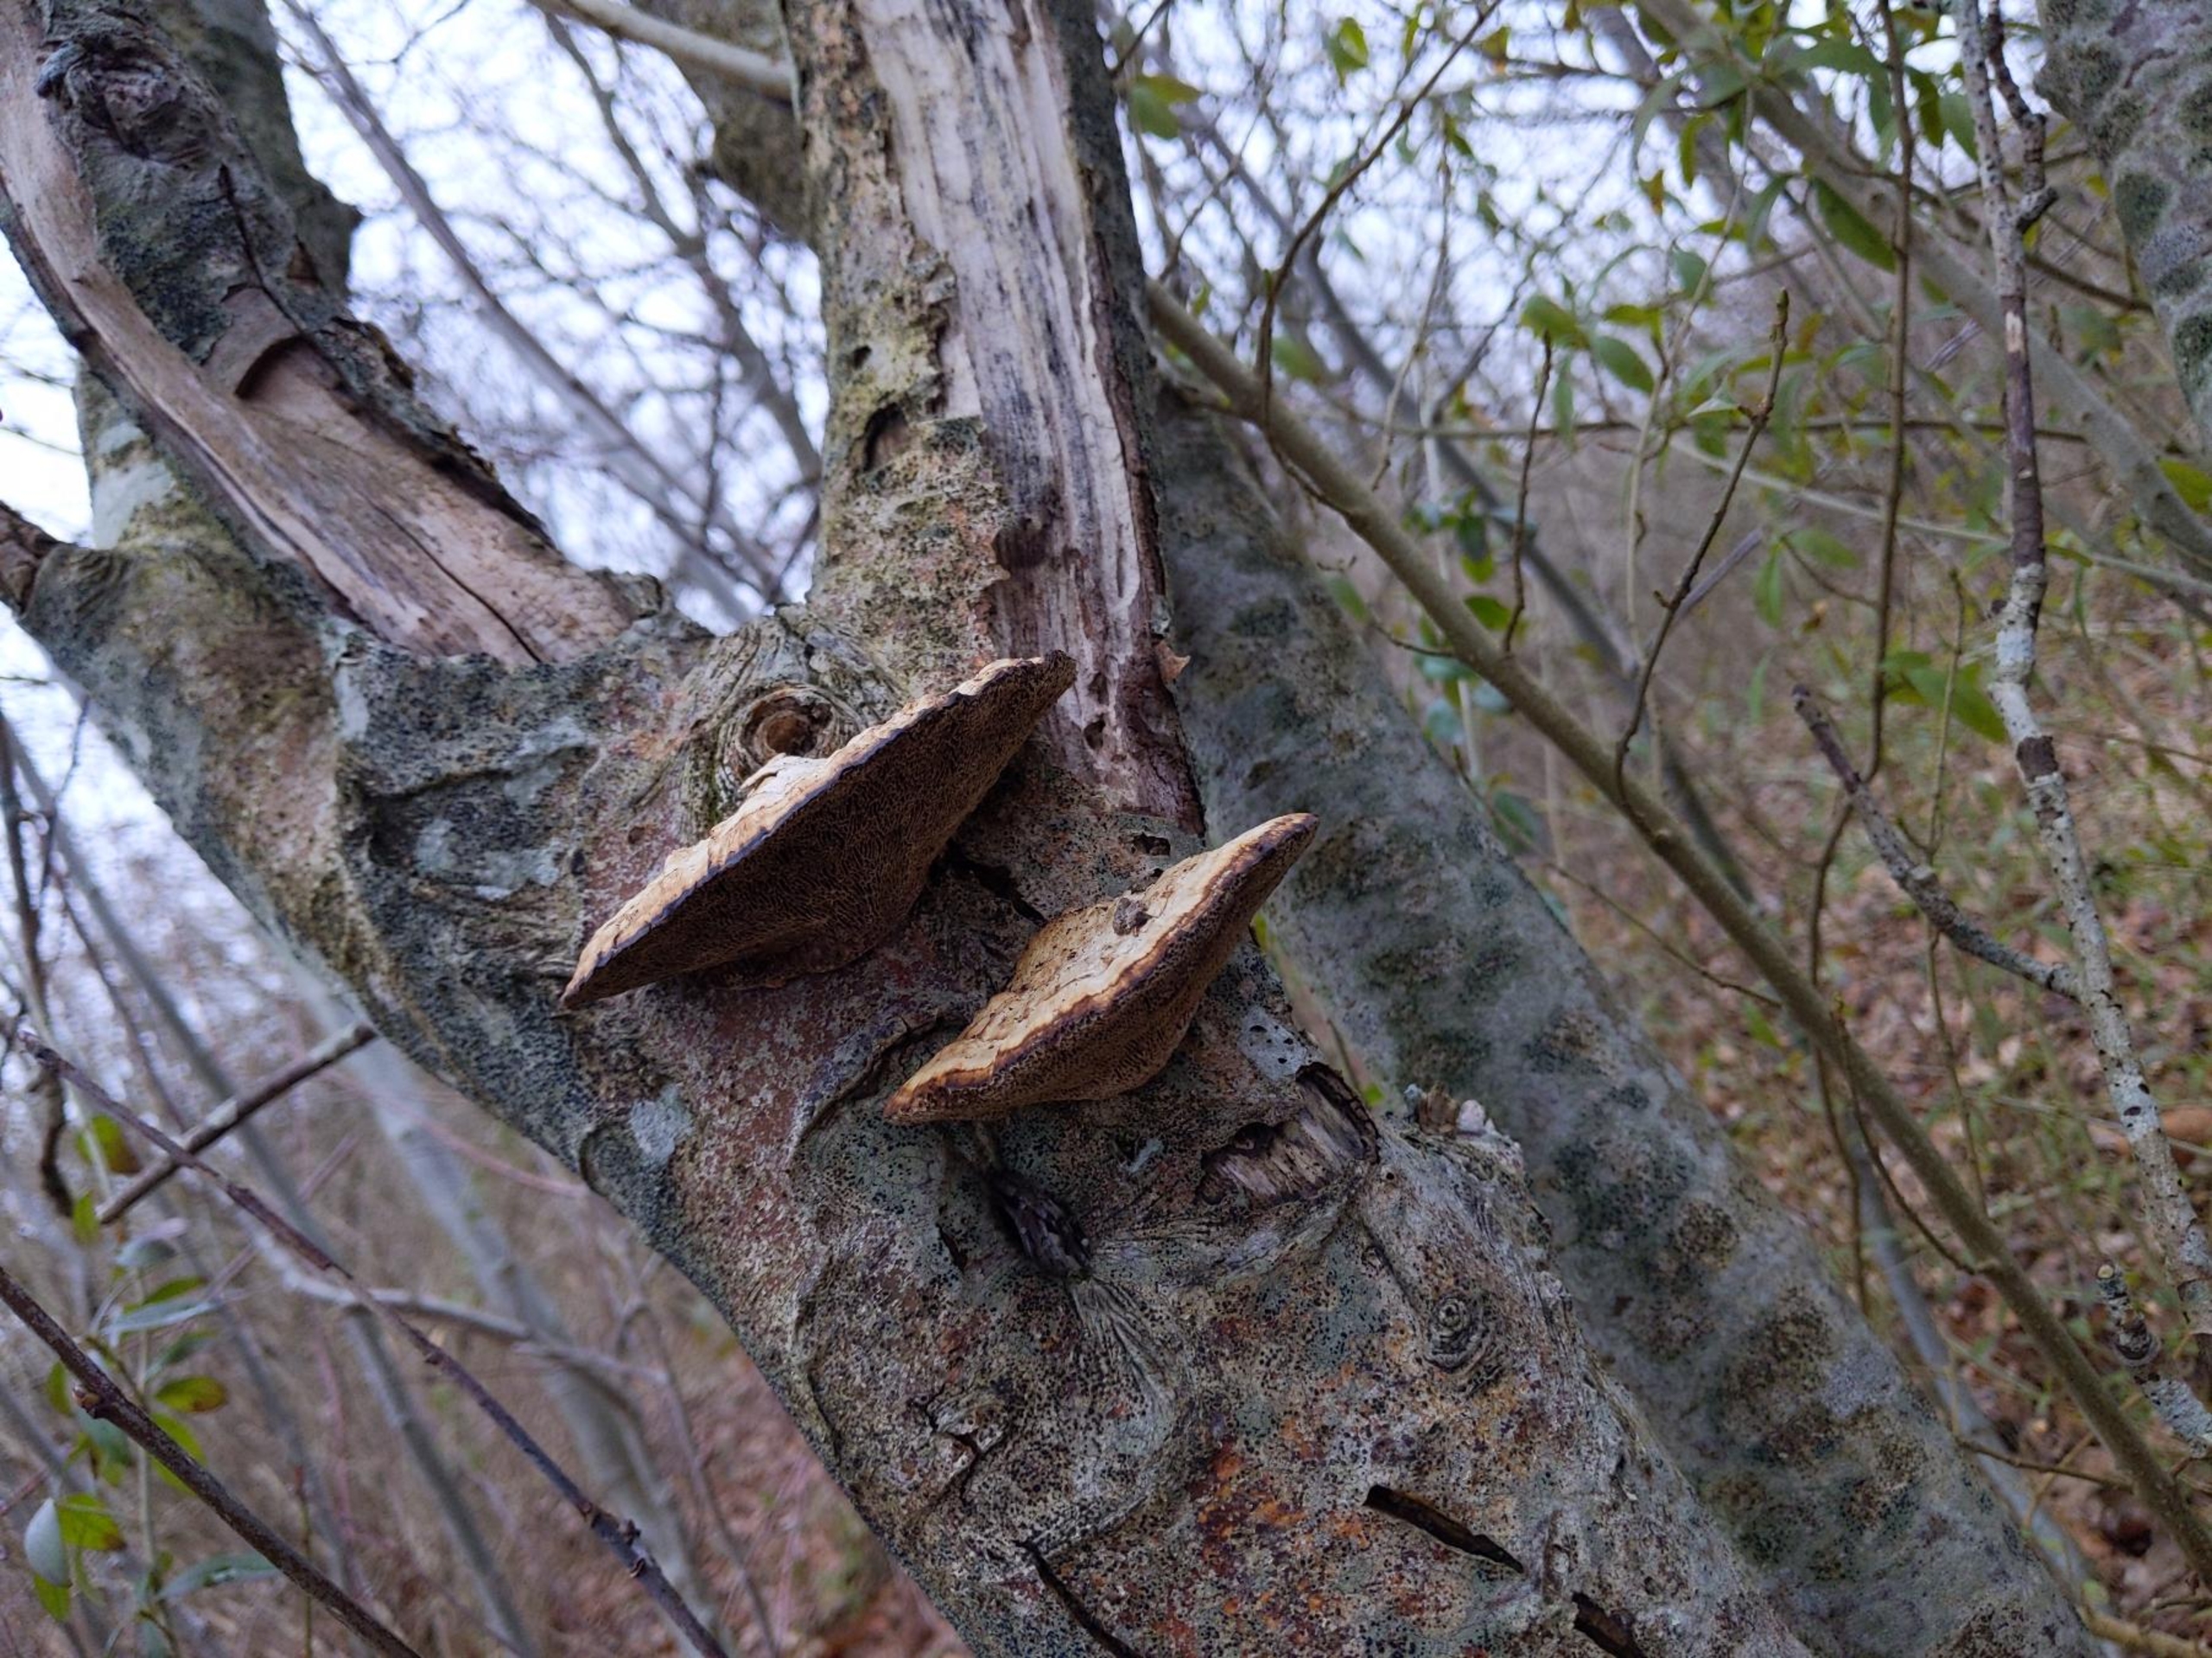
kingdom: Fungi
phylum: Basidiomycota
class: Agaricomycetes
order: Polyporales
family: Polyporaceae
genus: Daedaleopsis
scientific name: Daedaleopsis confragosa
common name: Rødmende læderporesvamp
